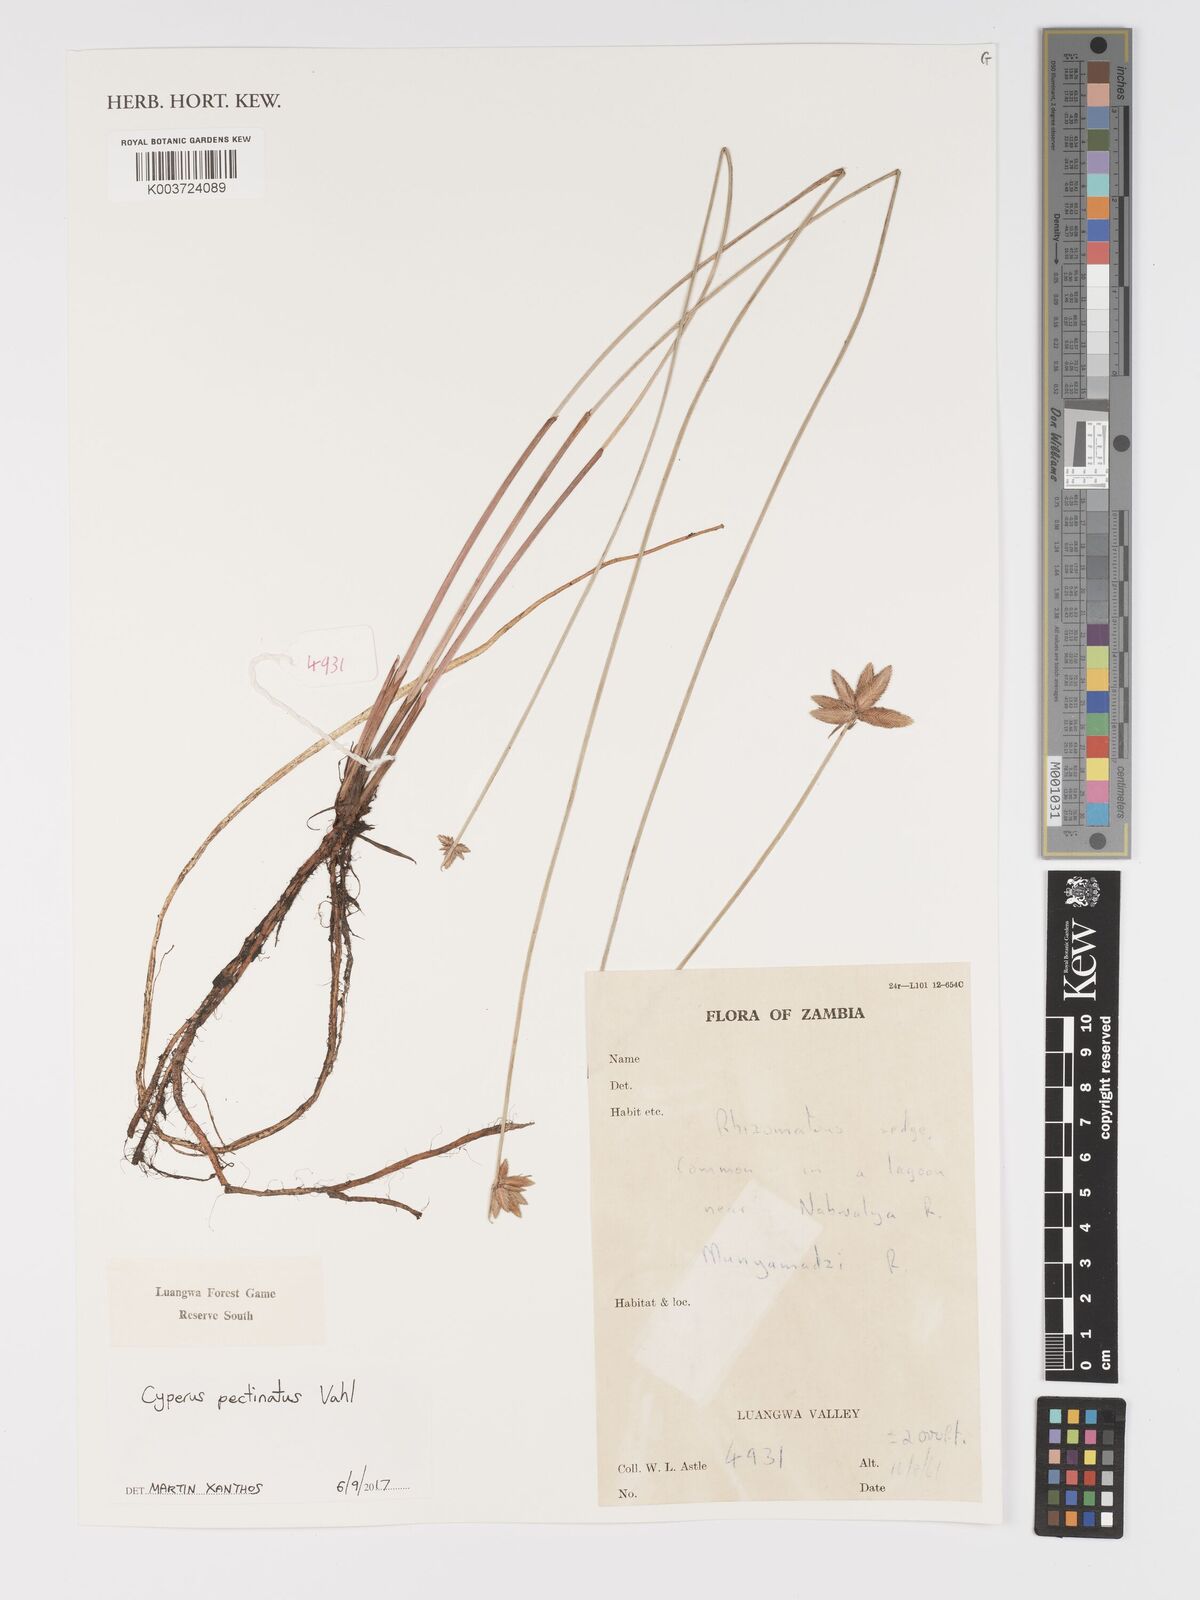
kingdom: Plantae
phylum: Tracheophyta
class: Liliopsida
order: Poales
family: Cyperaceae
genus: Cyperus
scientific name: Cyperus compressus
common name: Poorland flatsedge
